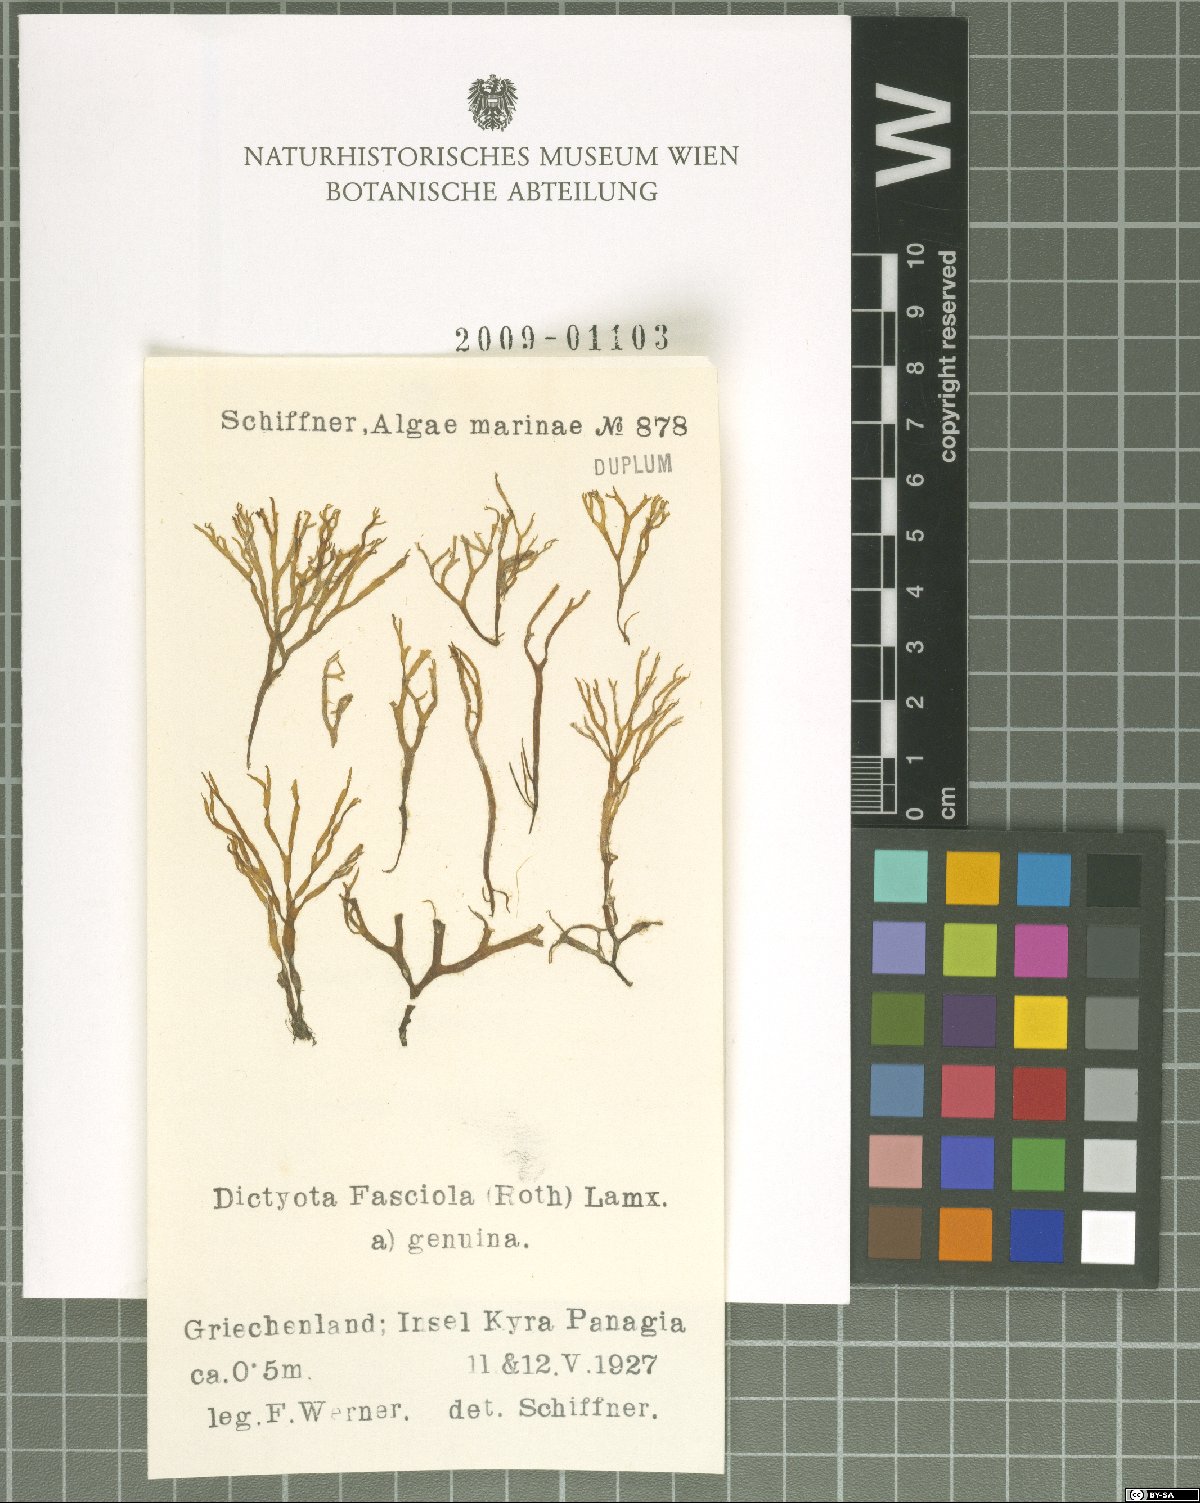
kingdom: Chromista
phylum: Ochrophyta
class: Phaeophyceae
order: Dictyotales
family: Dictyotaceae
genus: Dictyota
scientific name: Dictyota
